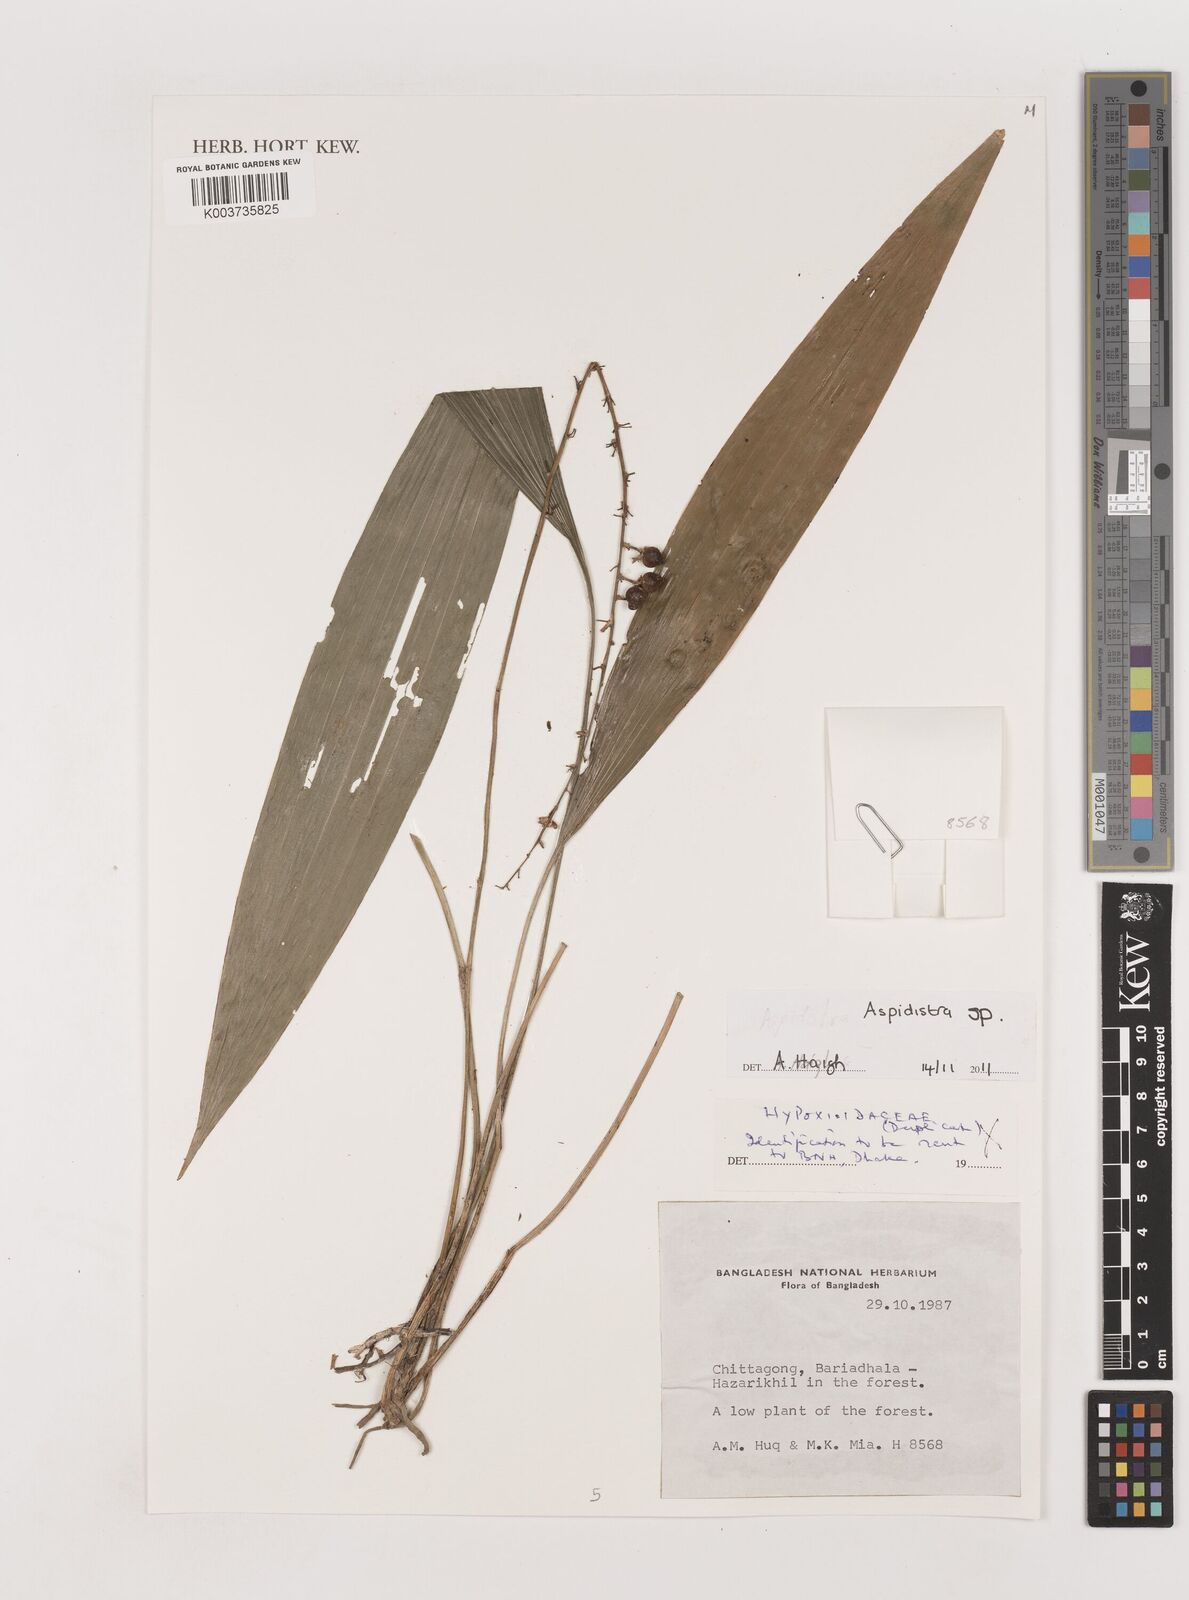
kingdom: Plantae
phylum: Tracheophyta
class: Liliopsida
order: Asparagales
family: Asparagaceae
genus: Aspidistra
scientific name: Aspidistra
